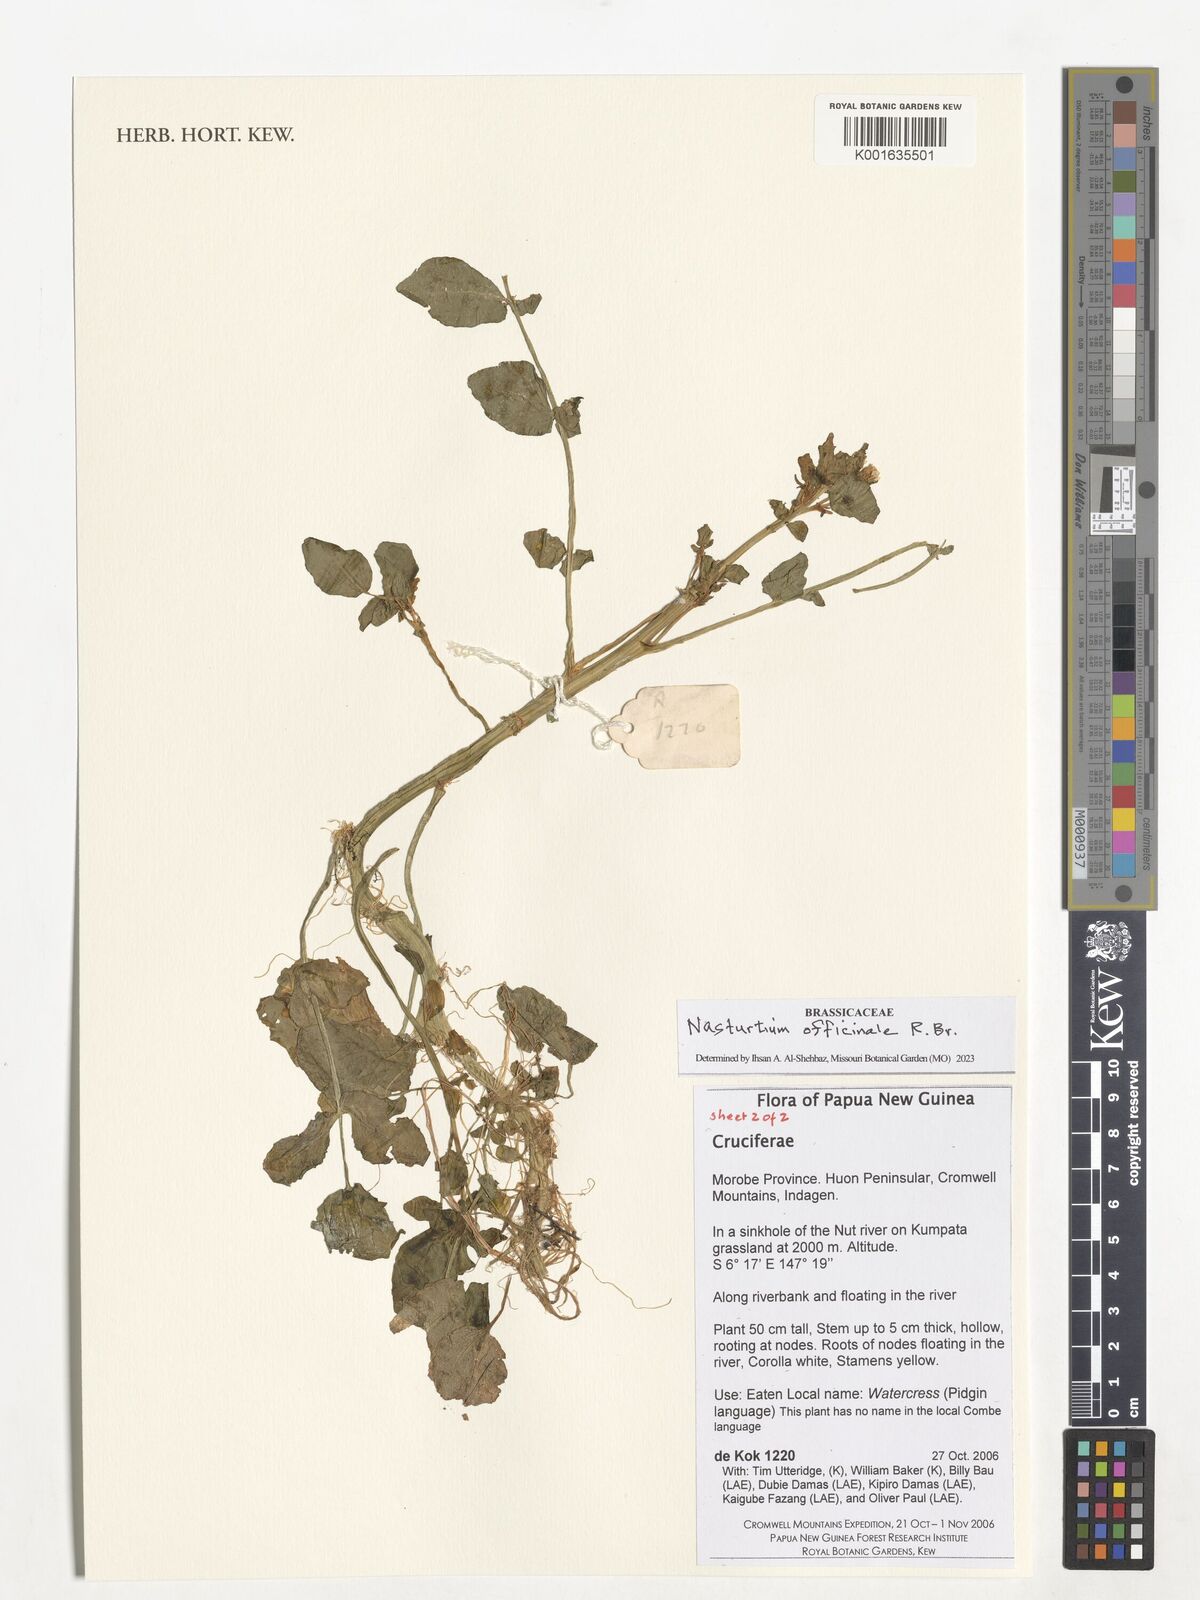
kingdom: Plantae
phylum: Tracheophyta
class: Magnoliopsida
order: Brassicales
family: Brassicaceae
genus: Nasturtium
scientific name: Nasturtium officinale
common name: Watercress
